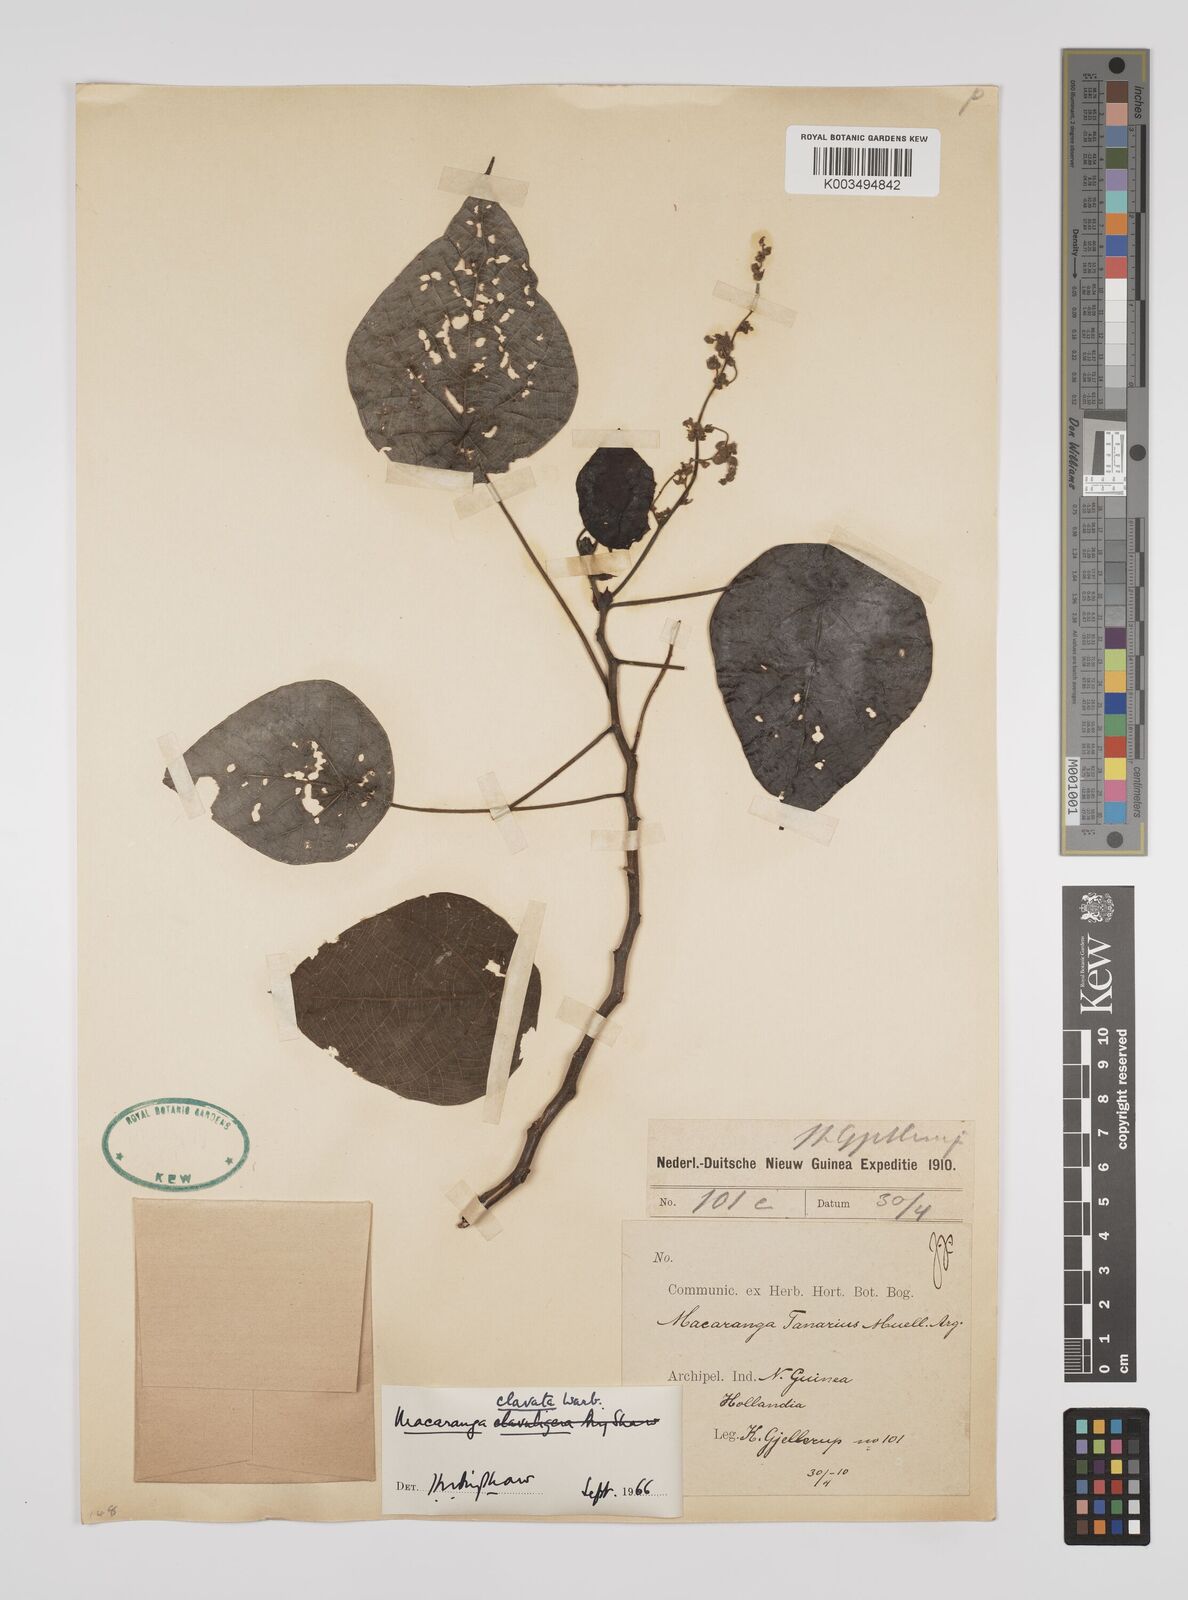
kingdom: Plantae
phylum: Tracheophyta
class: Magnoliopsida
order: Malpighiales
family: Euphorbiaceae
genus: Macaranga
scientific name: Macaranga clavata
